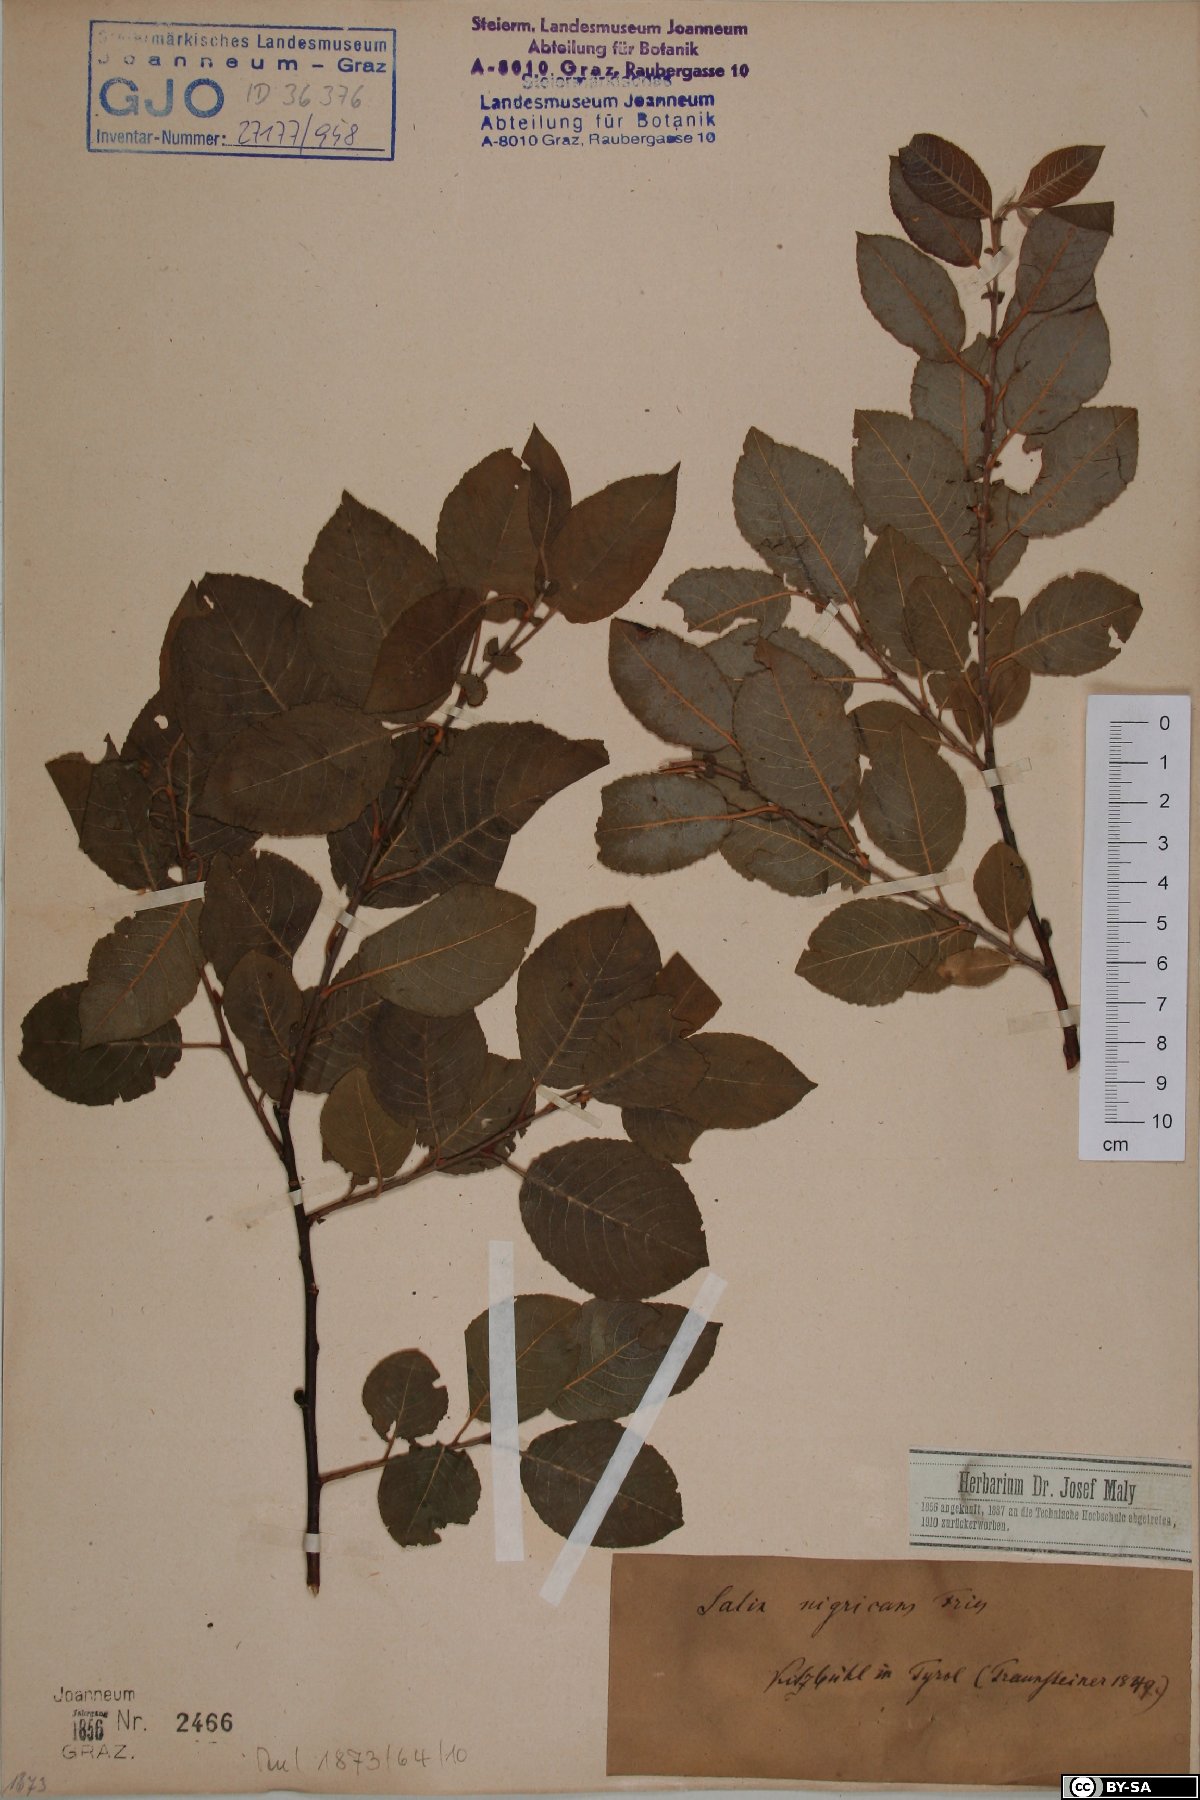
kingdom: Plantae
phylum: Tracheophyta
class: Magnoliopsida
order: Malpighiales
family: Salicaceae
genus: Salix
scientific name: Salix myrsinifolia
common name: Dark-leaved willow
